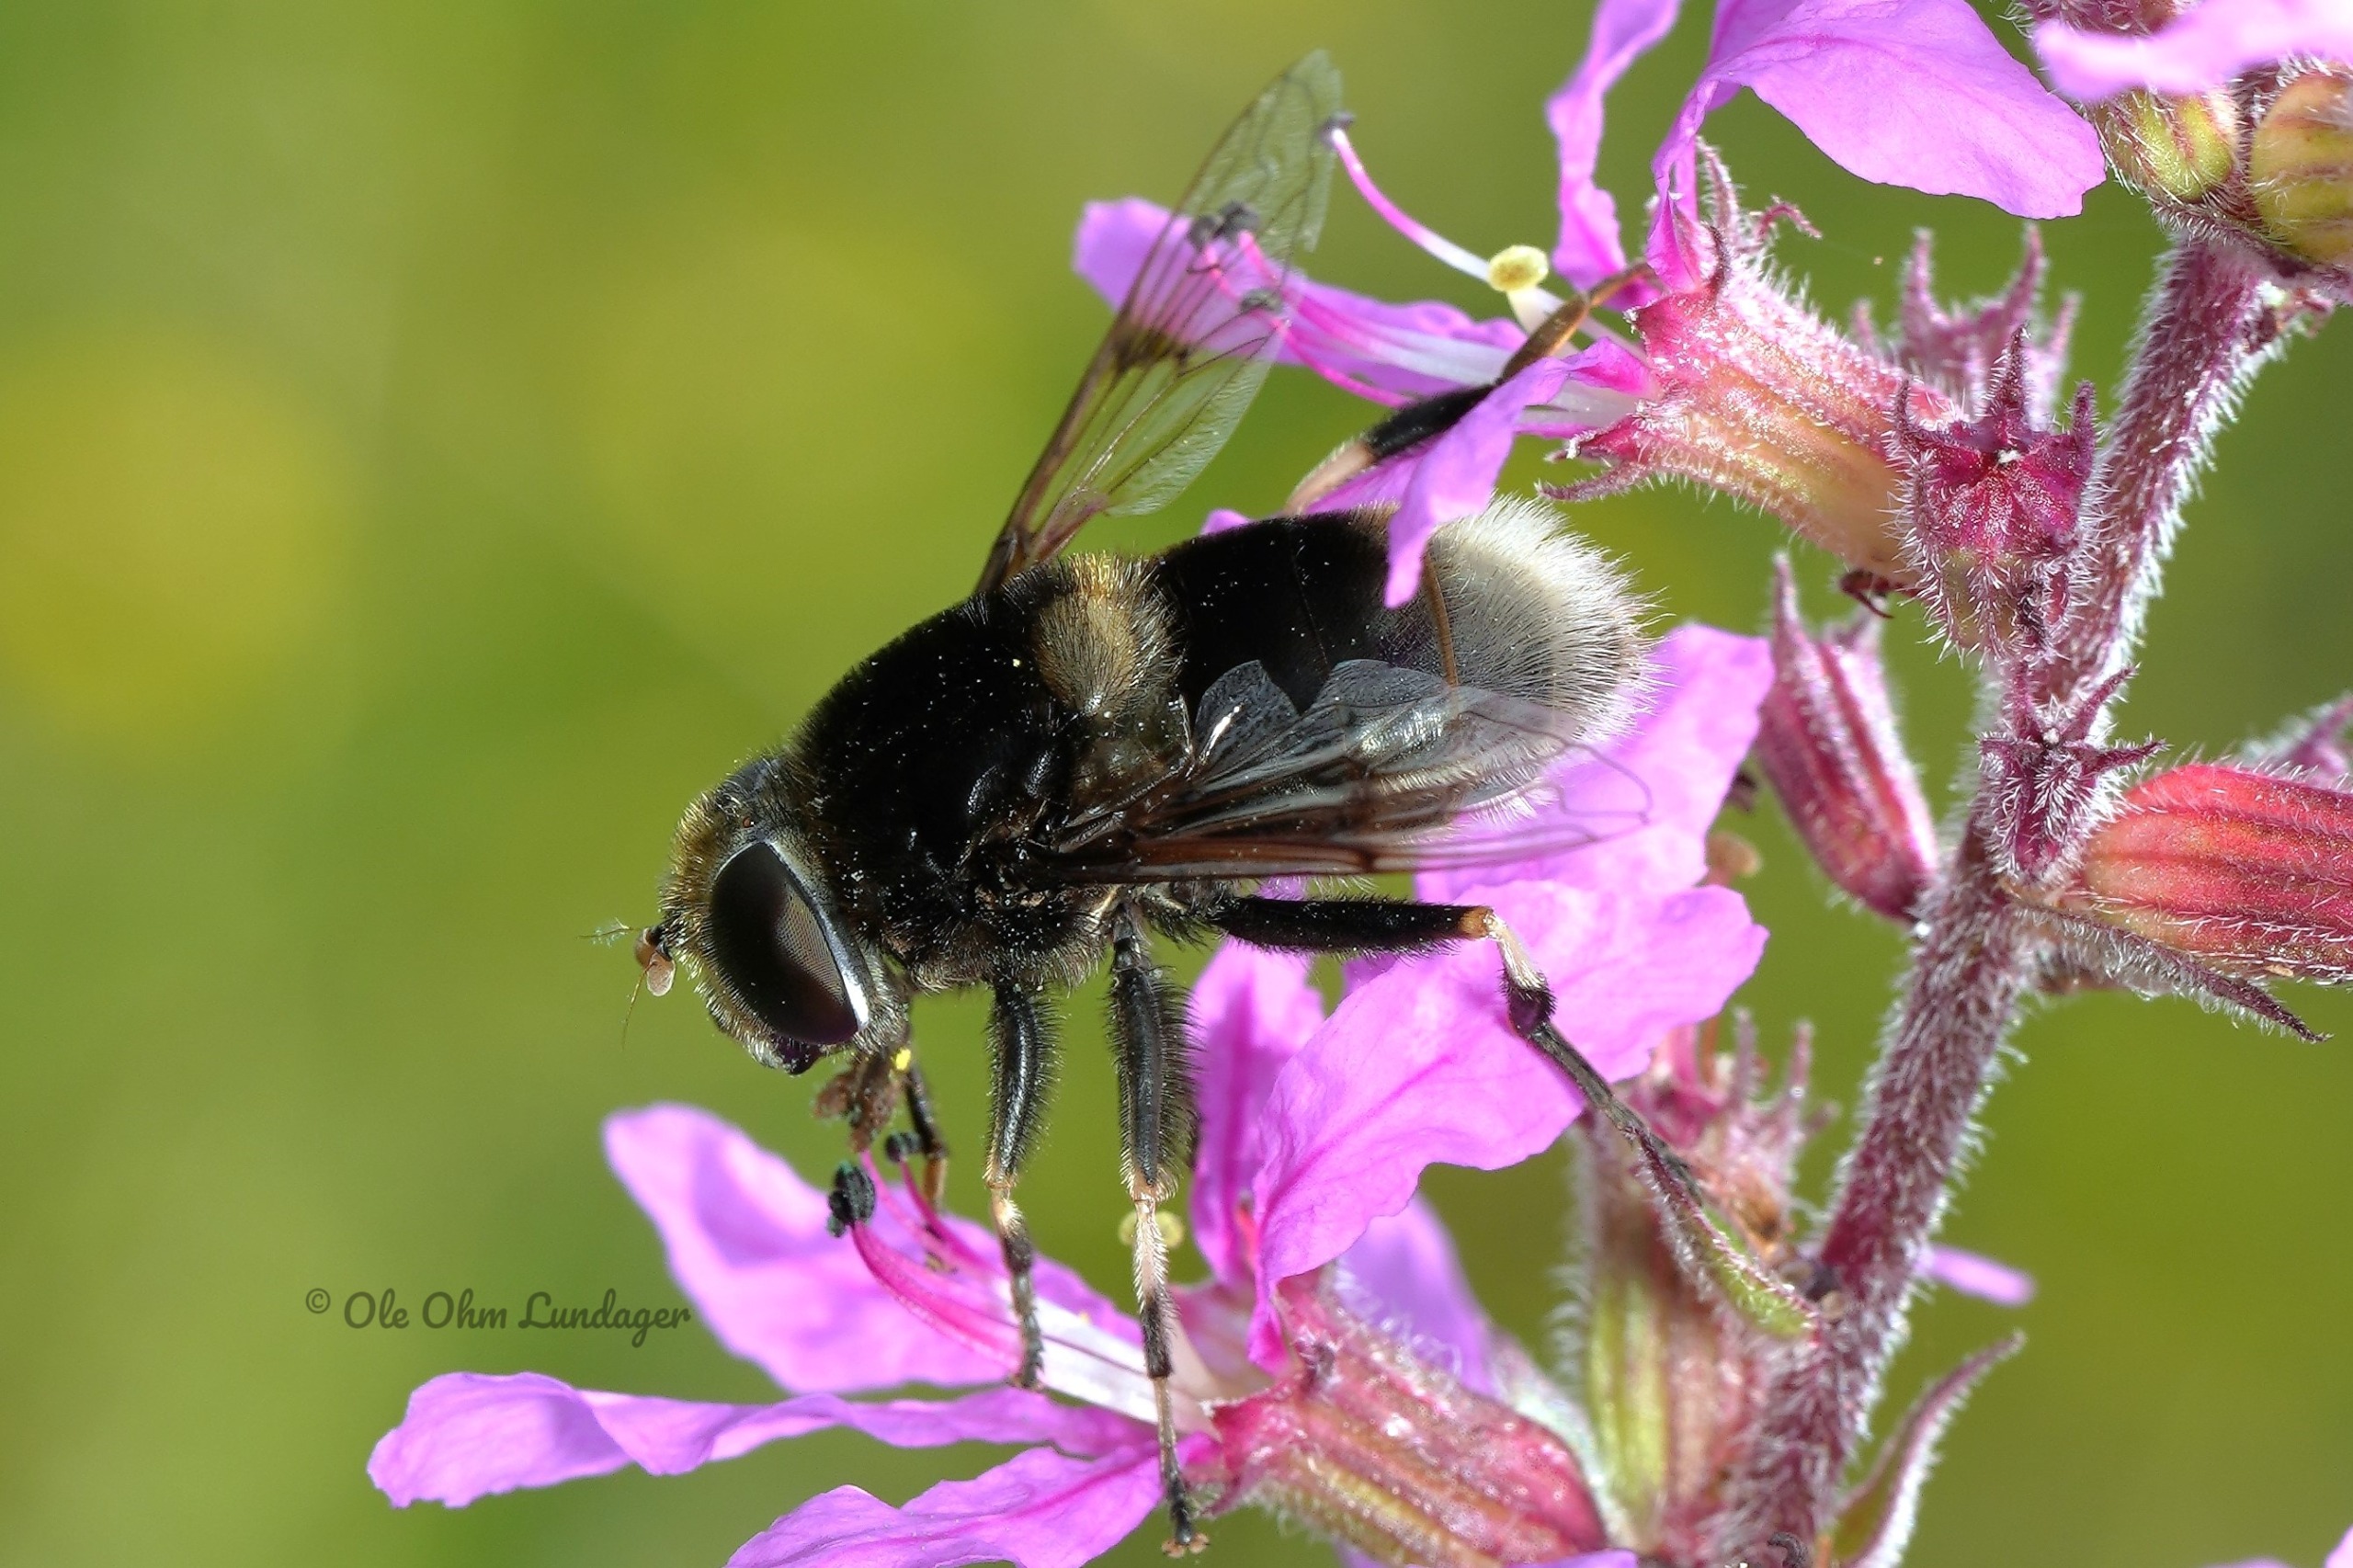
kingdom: Animalia
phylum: Arthropoda
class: Insecta
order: Diptera
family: Syrphidae
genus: Eristalis
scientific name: Eristalis intricaria
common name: Håret dyndflue
